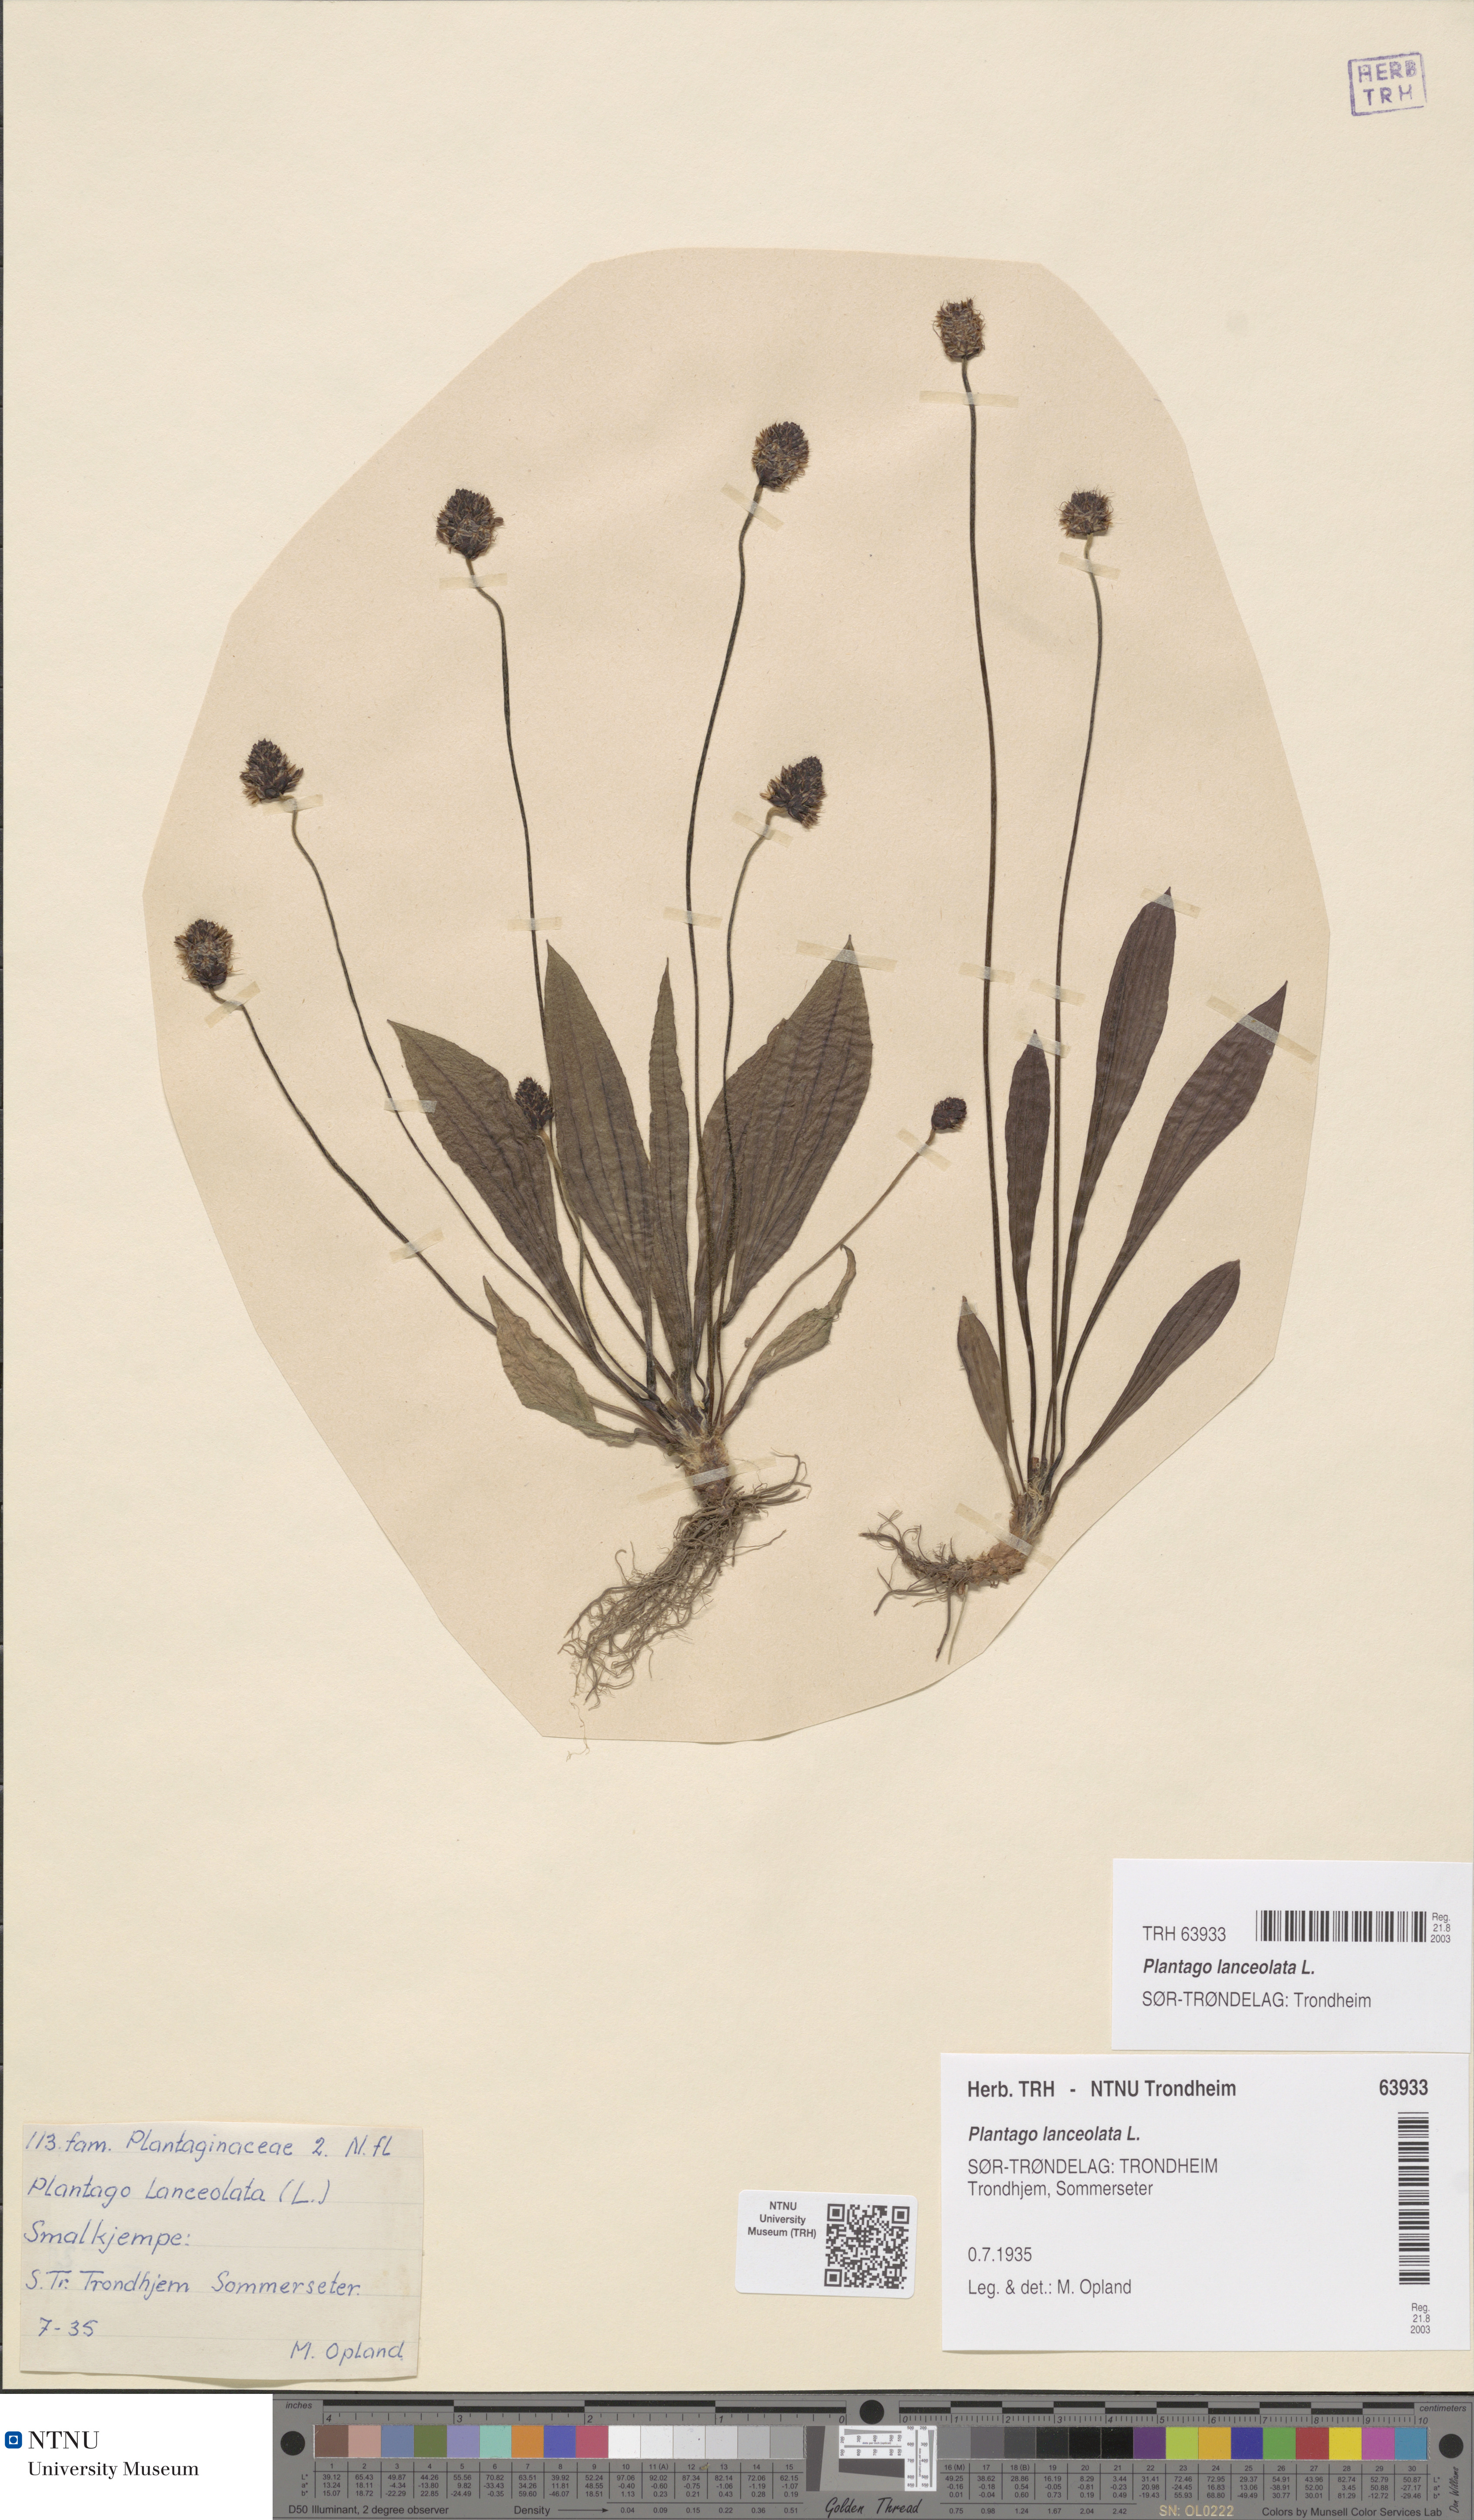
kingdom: Plantae
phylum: Tracheophyta
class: Magnoliopsida
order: Lamiales
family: Plantaginaceae
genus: Plantago
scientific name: Plantago lanceolata
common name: Ribwort plantain
